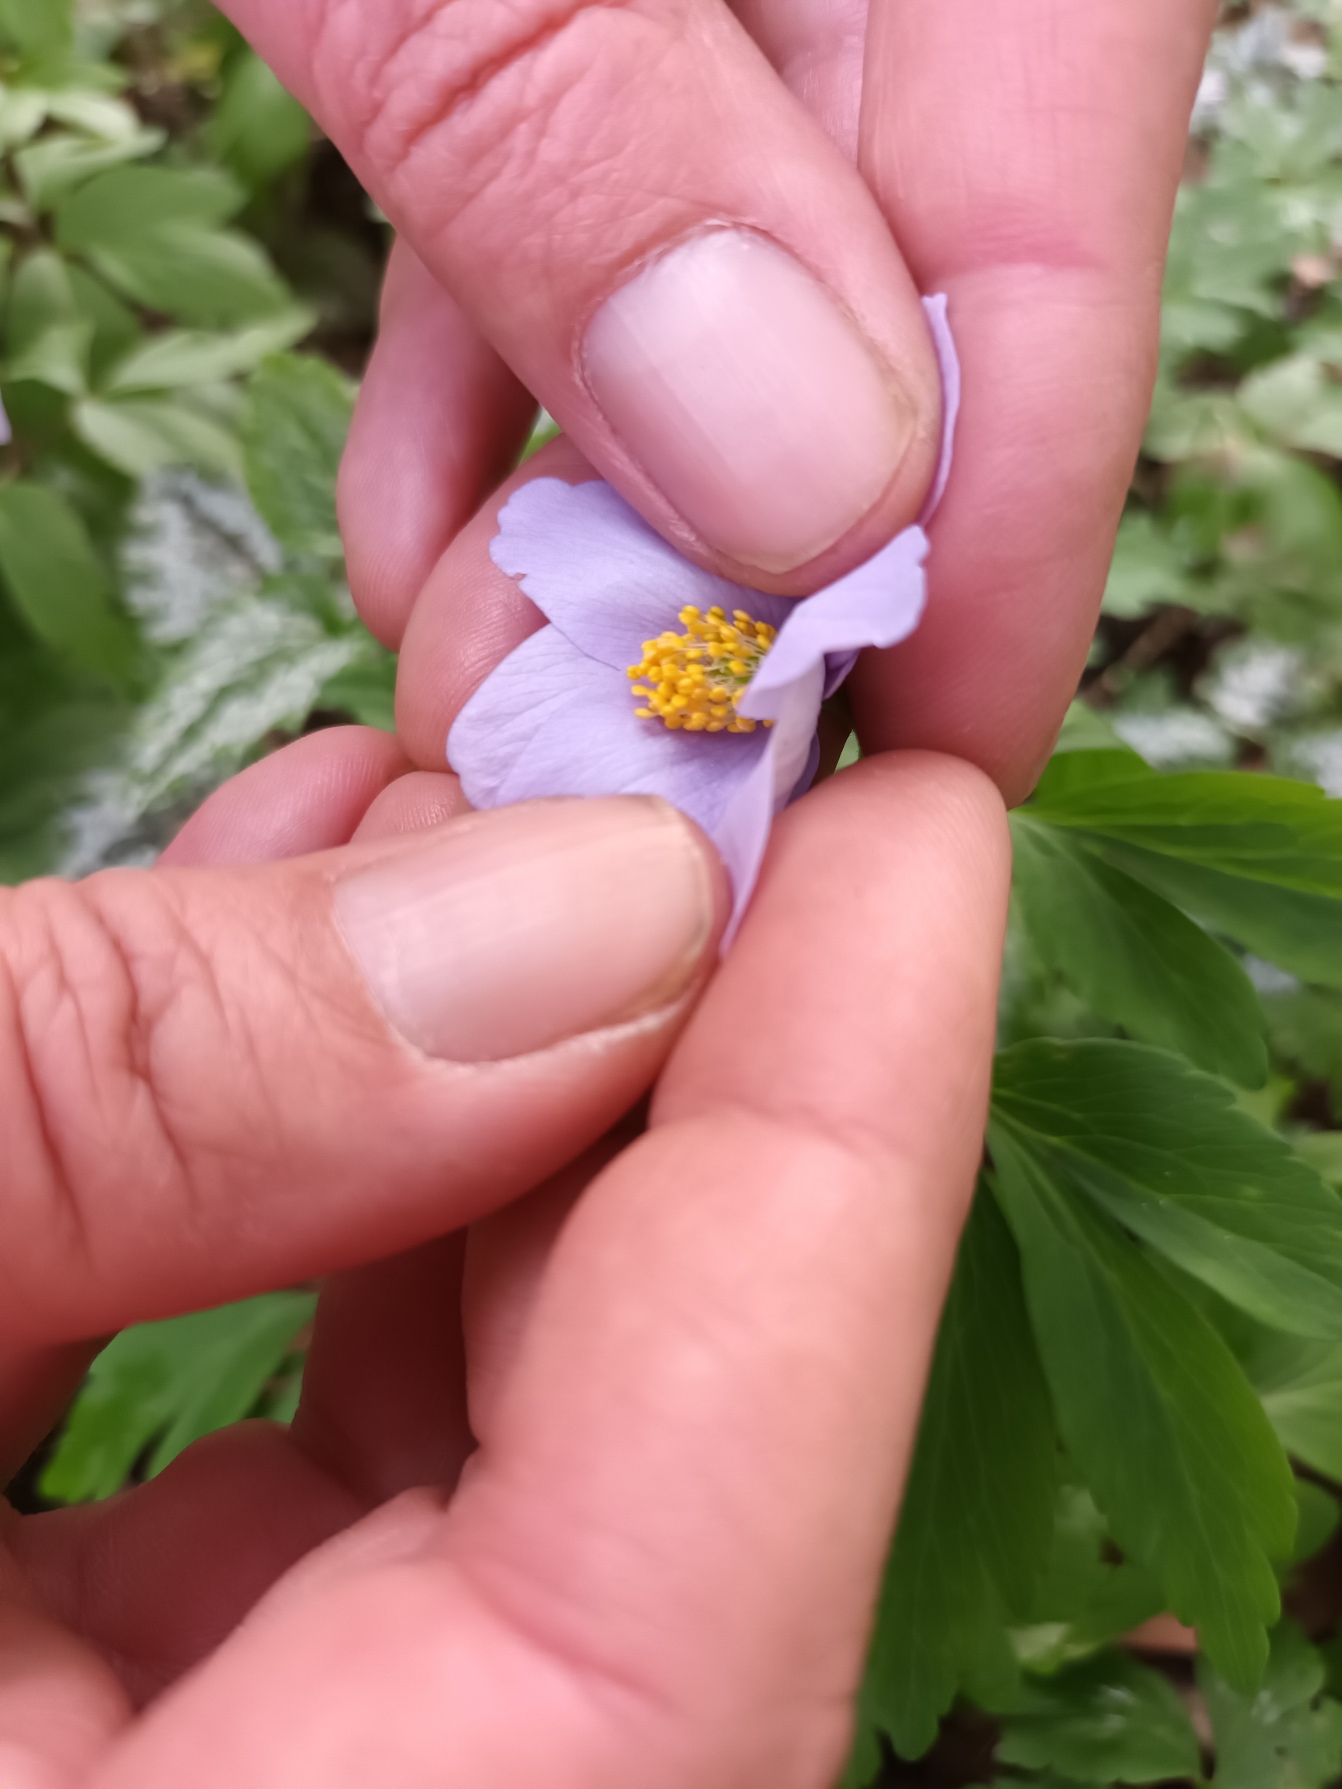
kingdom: Plantae
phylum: Tracheophyta
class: Magnoliopsida
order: Ranunculales
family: Ranunculaceae
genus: Anemone
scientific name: Anemone nemorosa
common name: Hvid anemone
